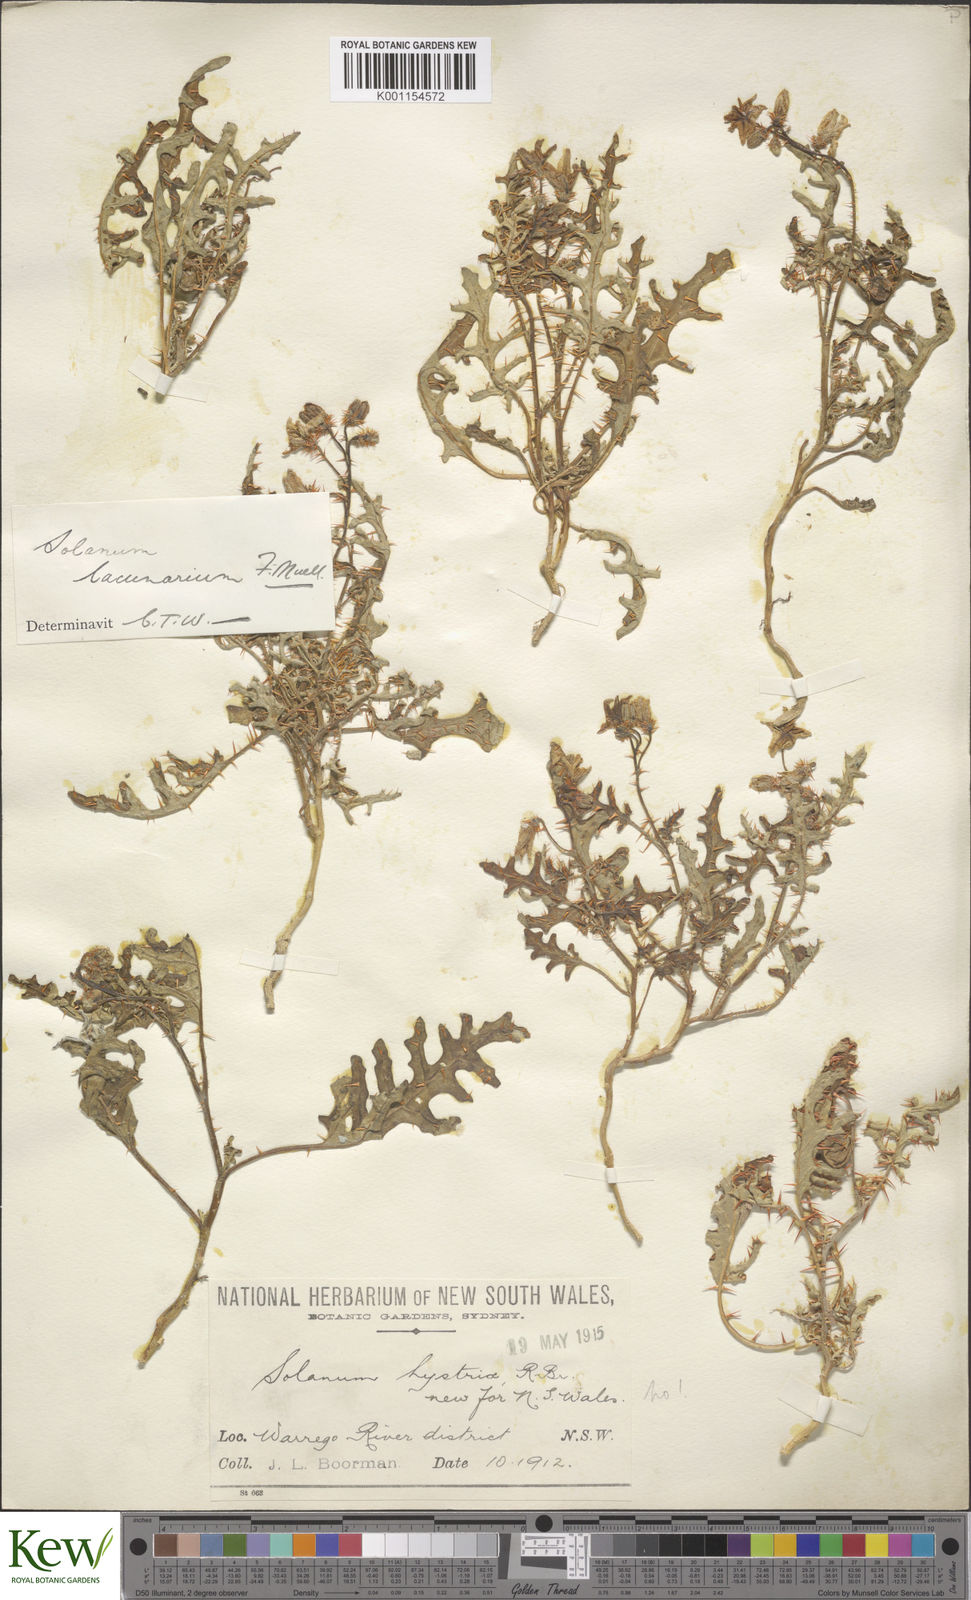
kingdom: Plantae
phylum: Tracheophyta
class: Magnoliopsida
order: Solanales
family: Solanaceae
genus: Solanum
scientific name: Solanum lacunarium
